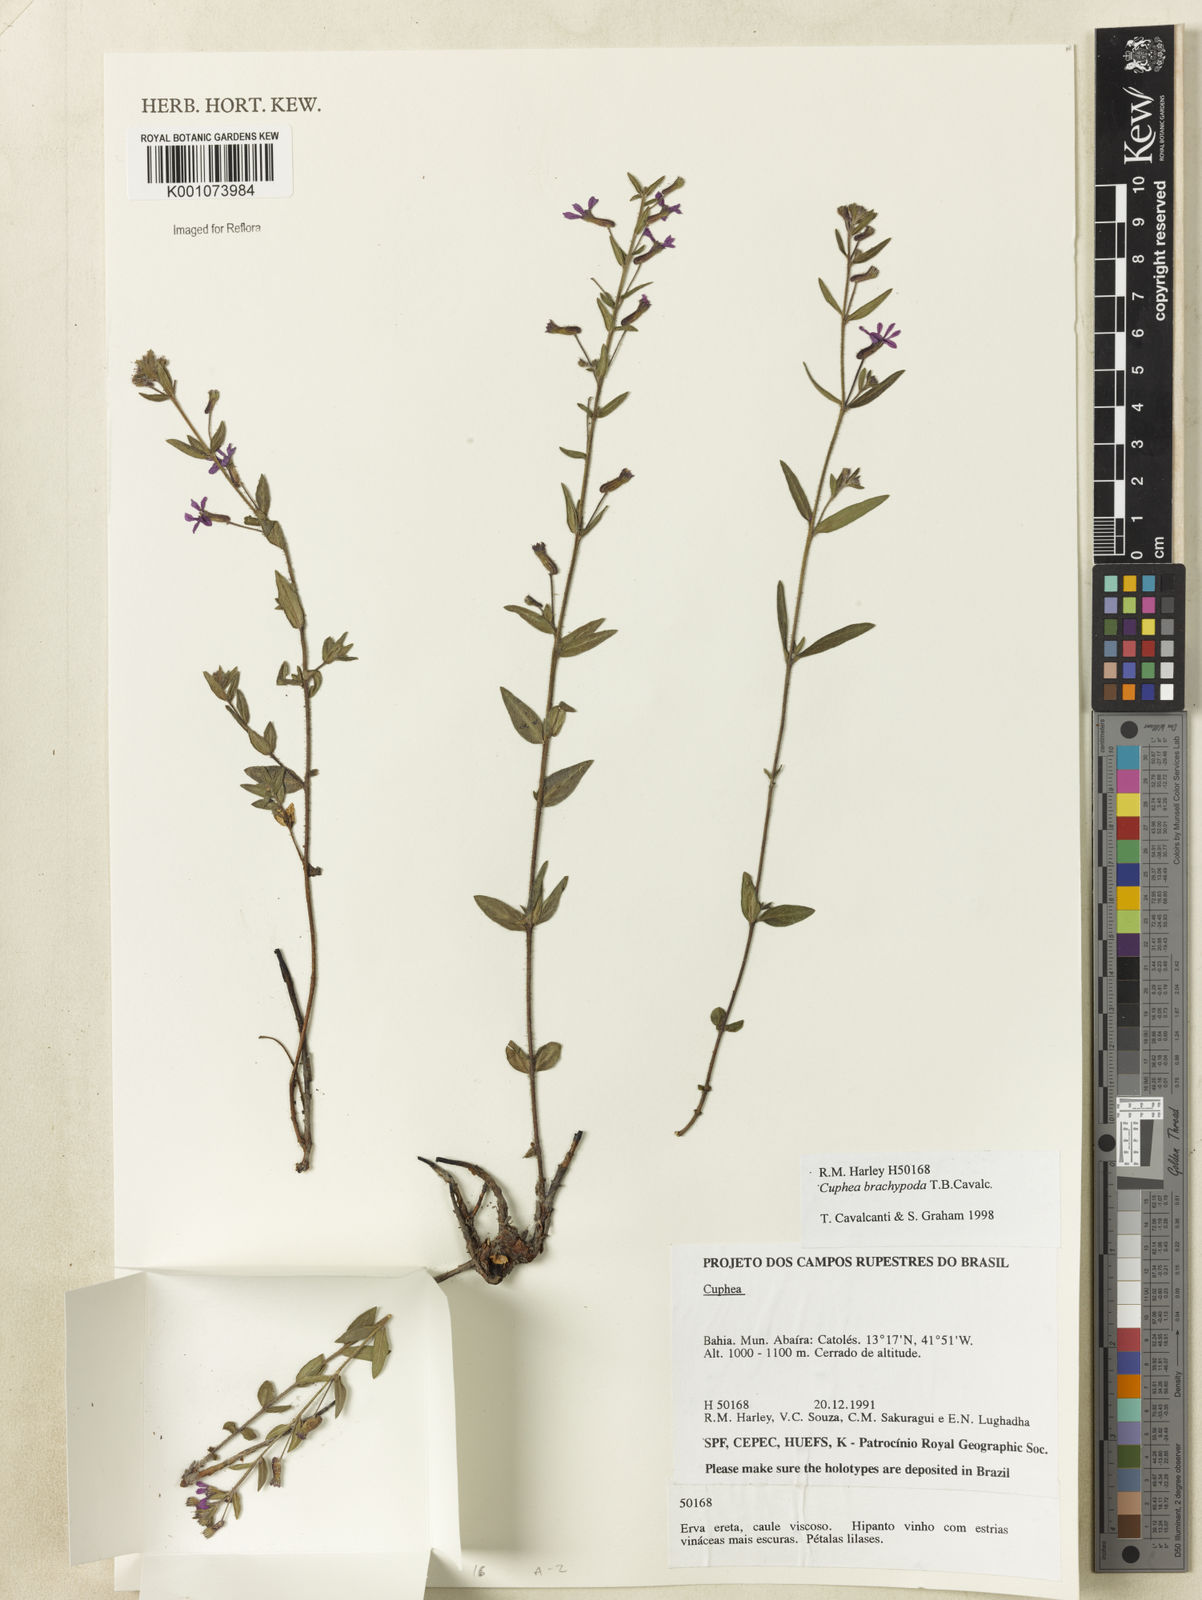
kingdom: Plantae
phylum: Tracheophyta
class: Magnoliopsida
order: Myrtales
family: Lythraceae
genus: Cuphea
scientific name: Cuphea brachypoda
